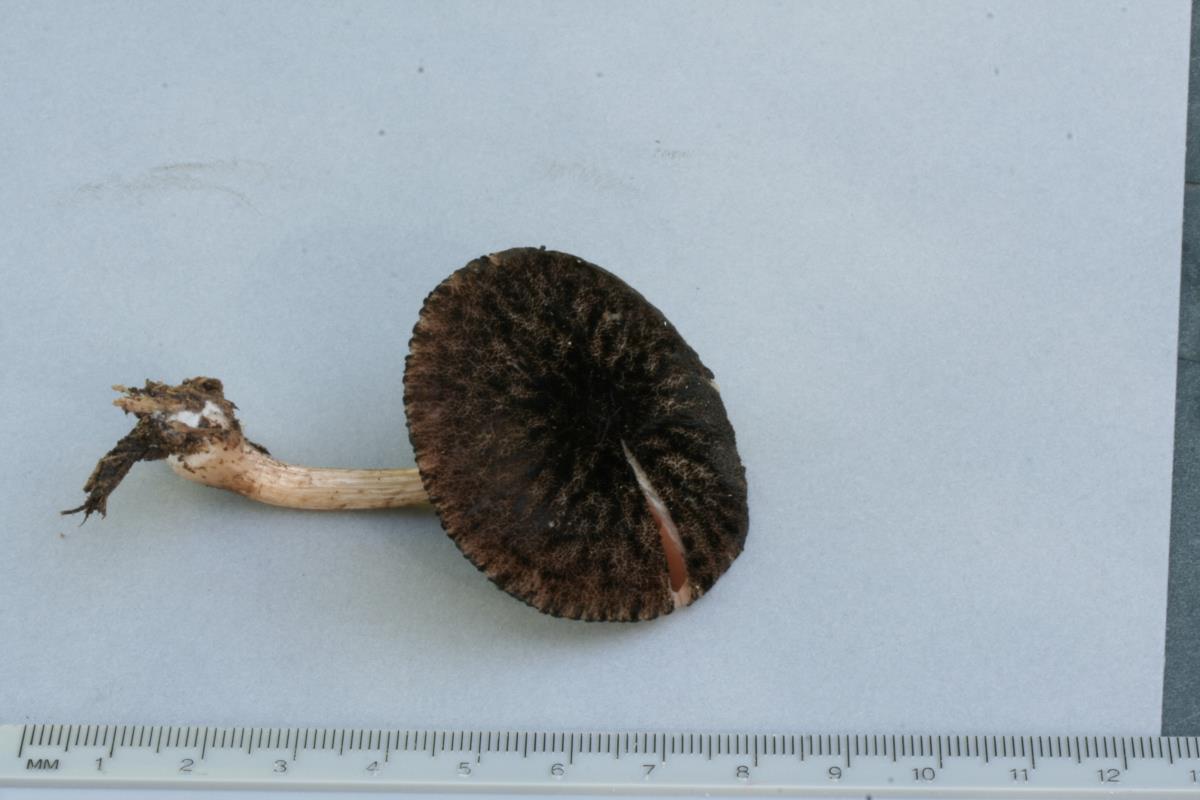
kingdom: Fungi
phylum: Basidiomycota
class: Agaricomycetes
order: Agaricales
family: Pluteaceae
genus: Pluteus
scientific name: Pluteus perroseus
